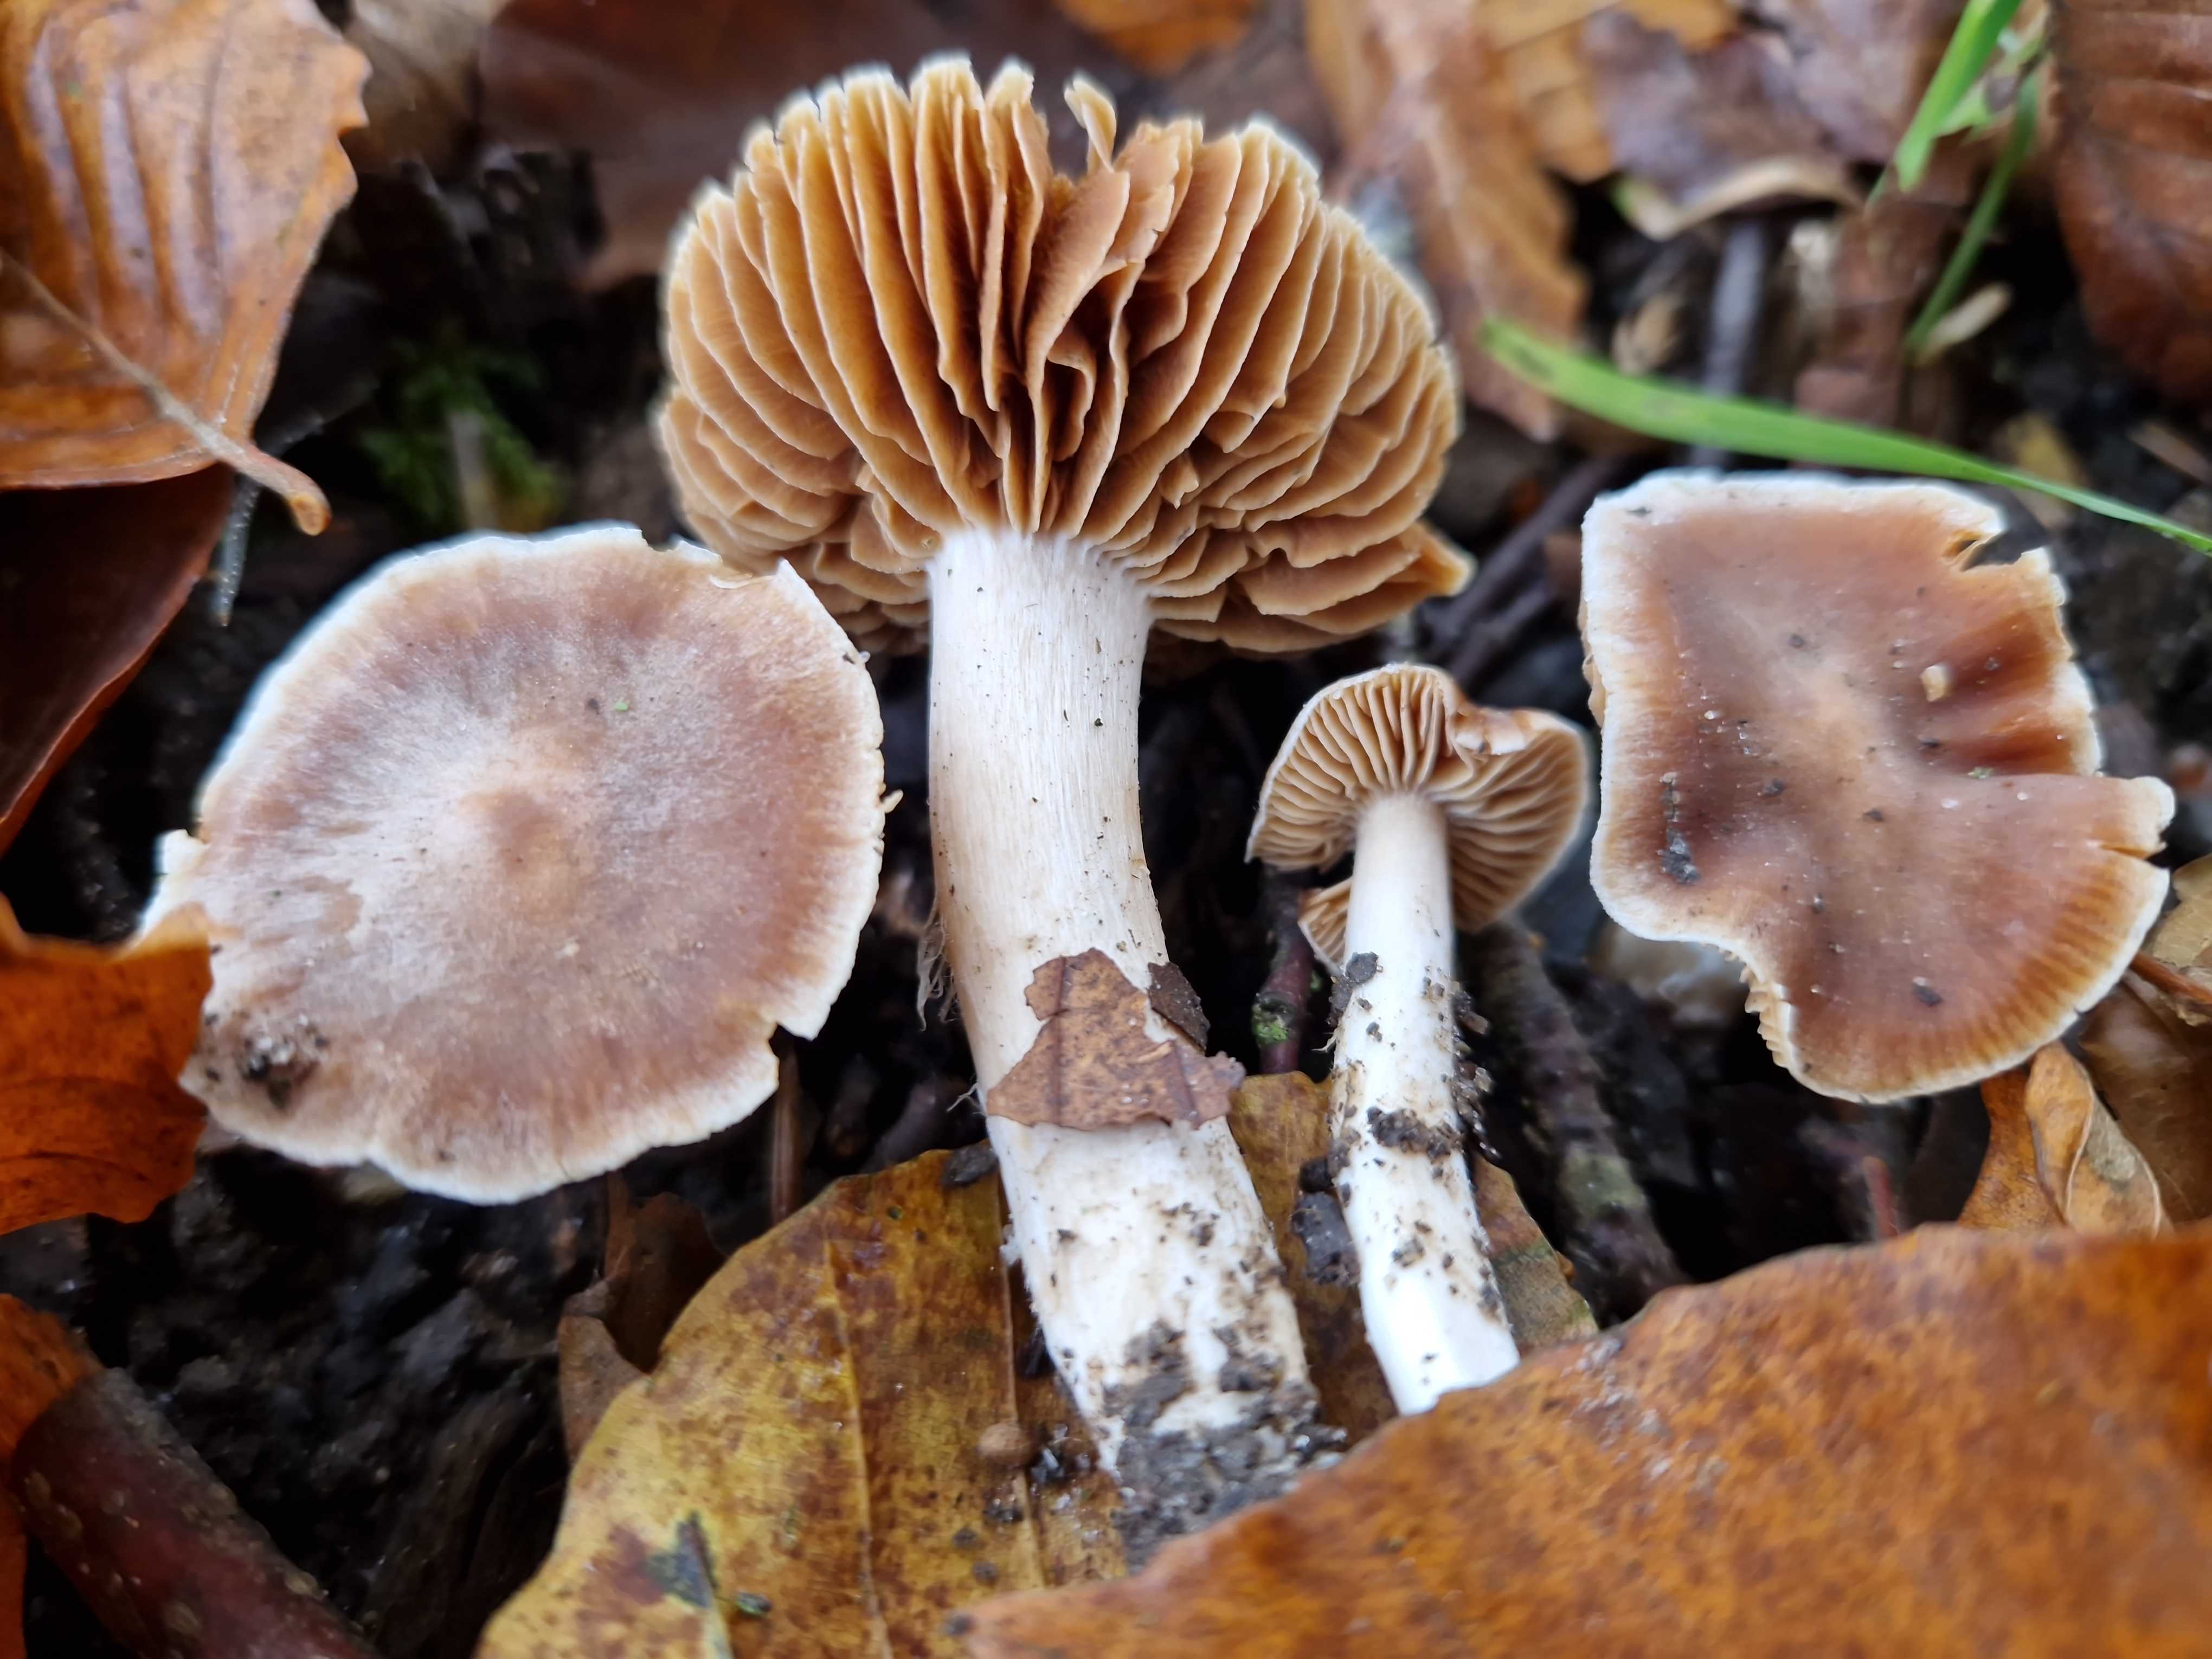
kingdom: Fungi
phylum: Basidiomycota
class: Agaricomycetes
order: Agaricales
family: Cortinariaceae
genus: Cortinarius
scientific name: Cortinarius
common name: jod-slørhat
